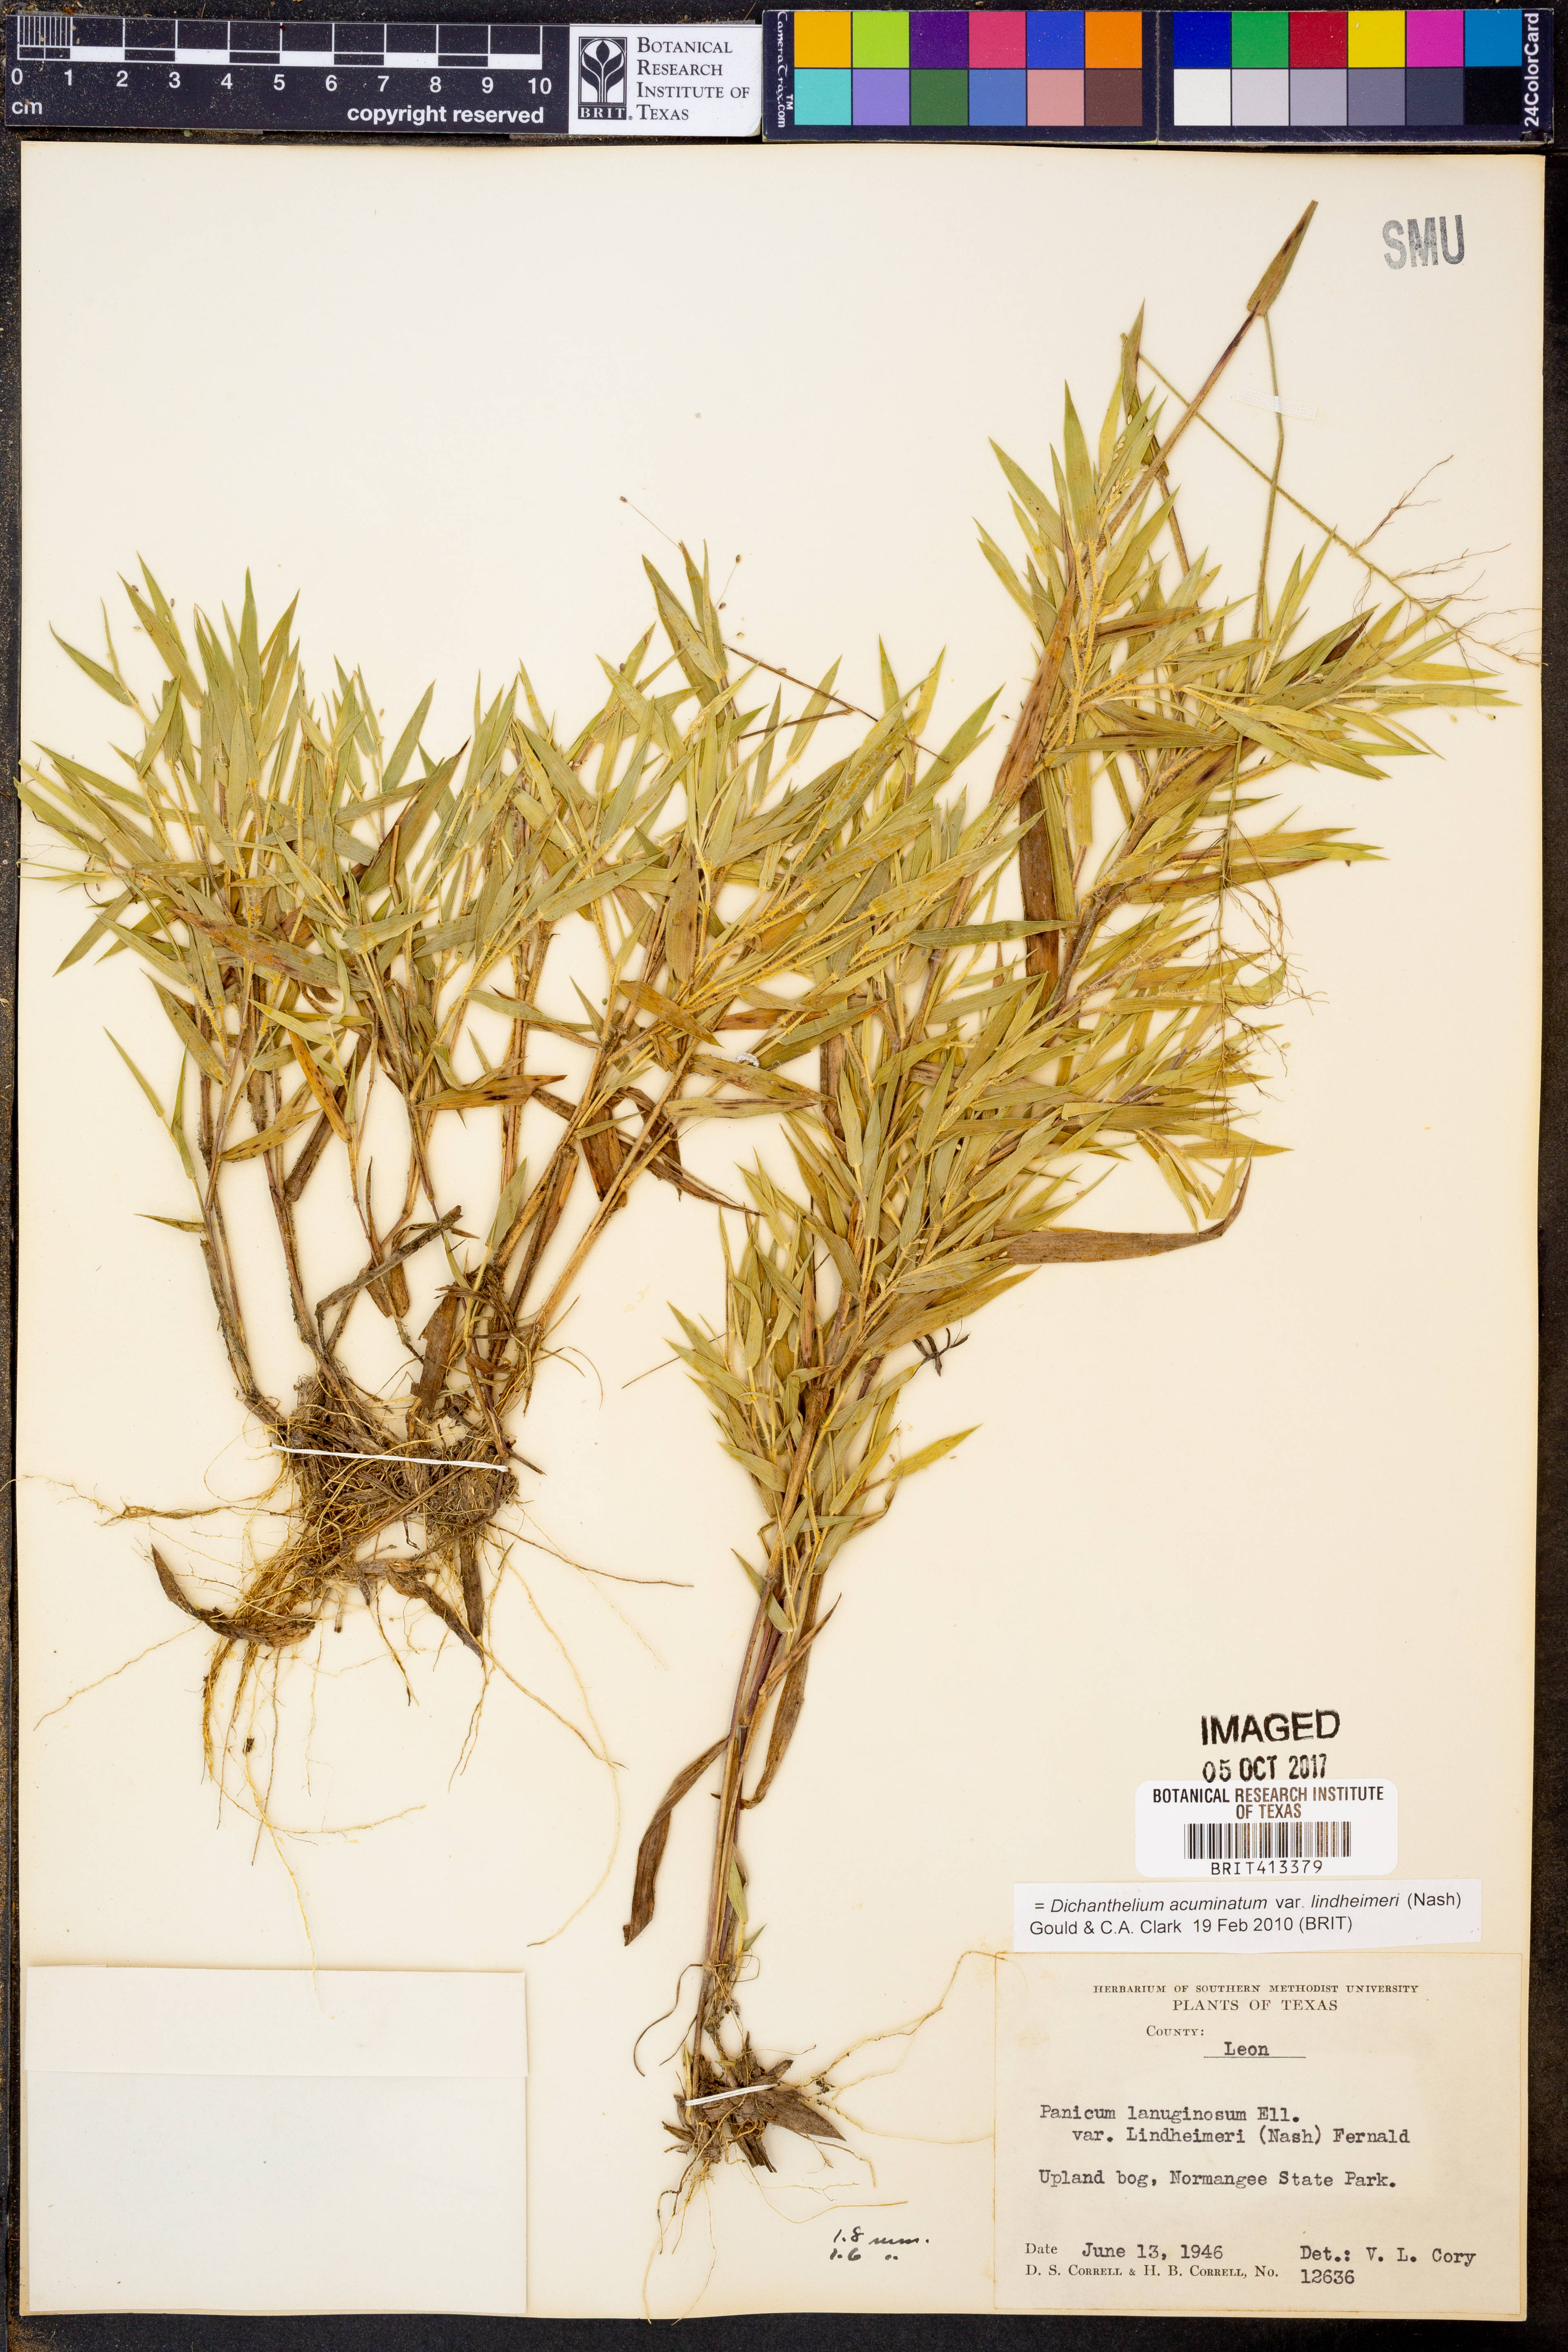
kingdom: Plantae
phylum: Tracheophyta
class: Liliopsida
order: Poales
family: Poaceae
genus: Dichanthelium
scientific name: Dichanthelium lindheimeri
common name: Lindheimer's panicgrass
